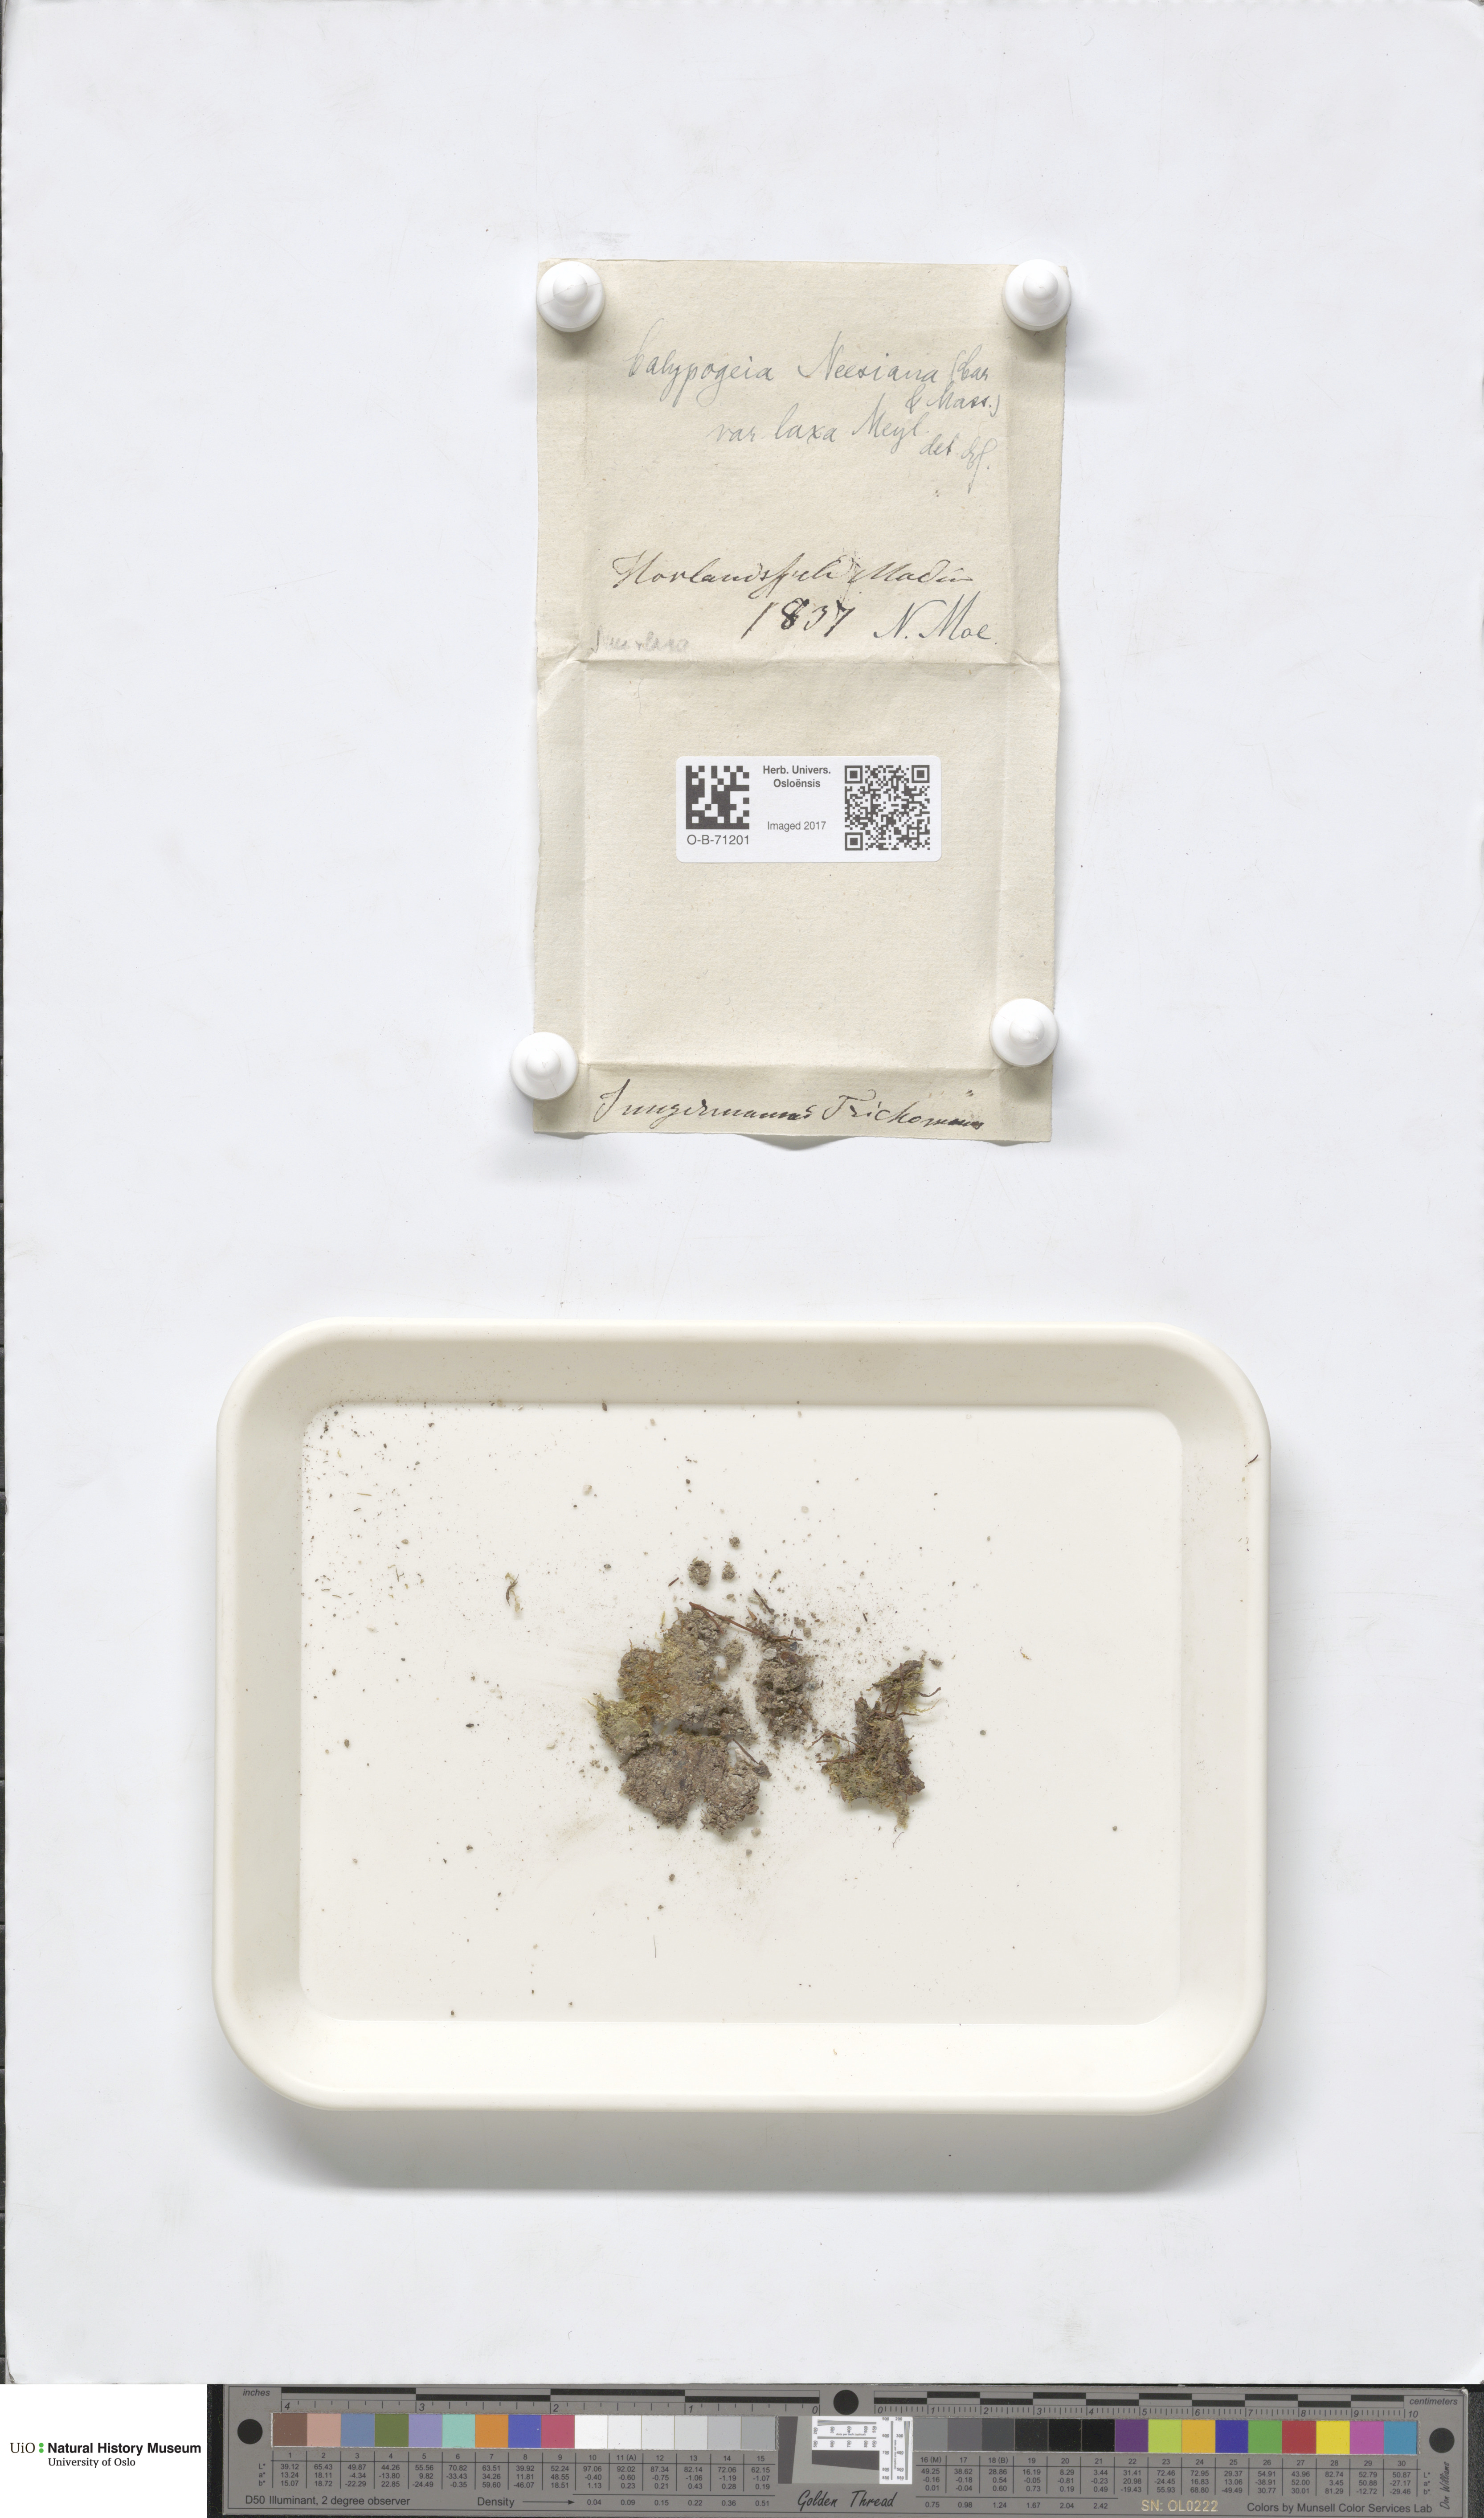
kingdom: Plantae
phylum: Marchantiophyta
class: Jungermanniopsida
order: Jungermanniales
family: Calypogeiaceae
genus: Calypogeia
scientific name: Calypogeia neesiana
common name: Nees  pouchwort
